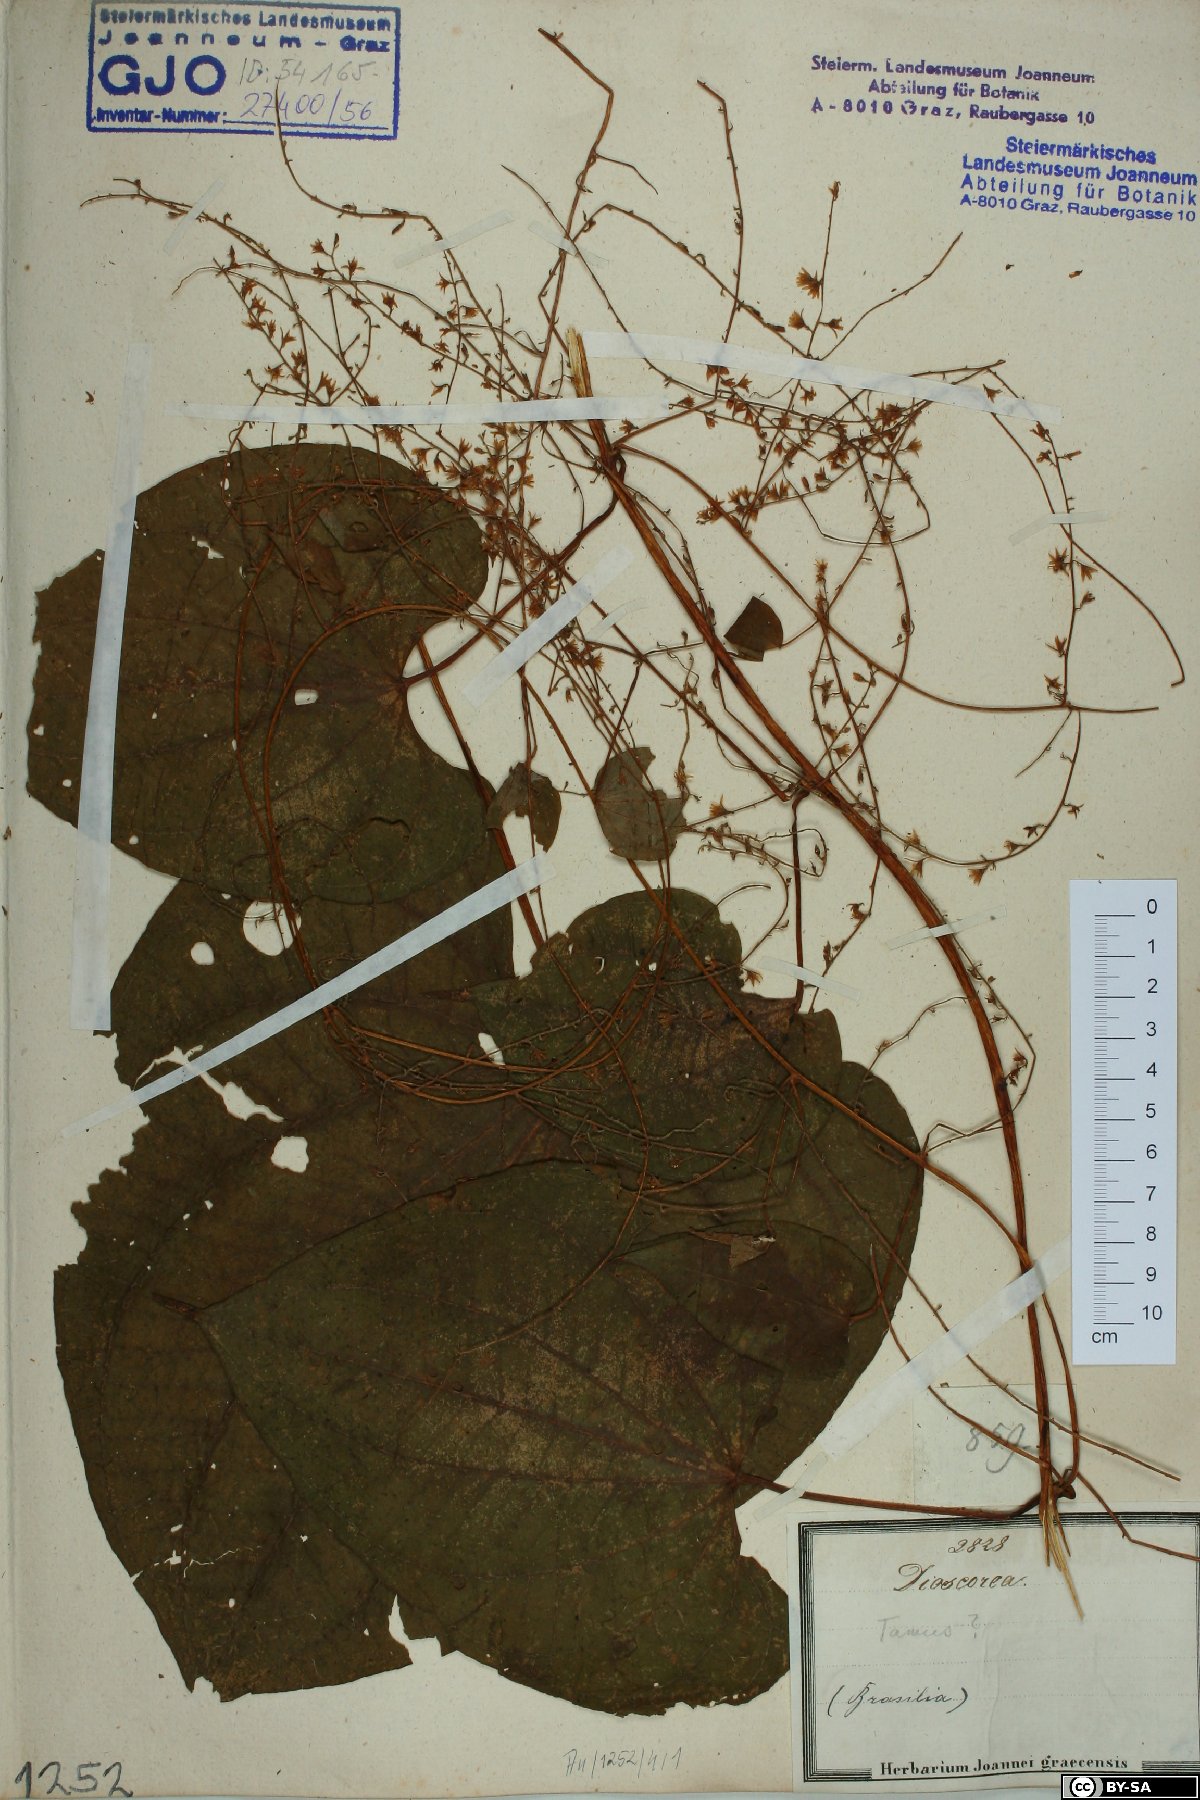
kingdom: Plantae
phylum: Tracheophyta
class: Liliopsida
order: Dioscoreales
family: Dioscoreaceae
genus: Dioscorea
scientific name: Dioscorea
